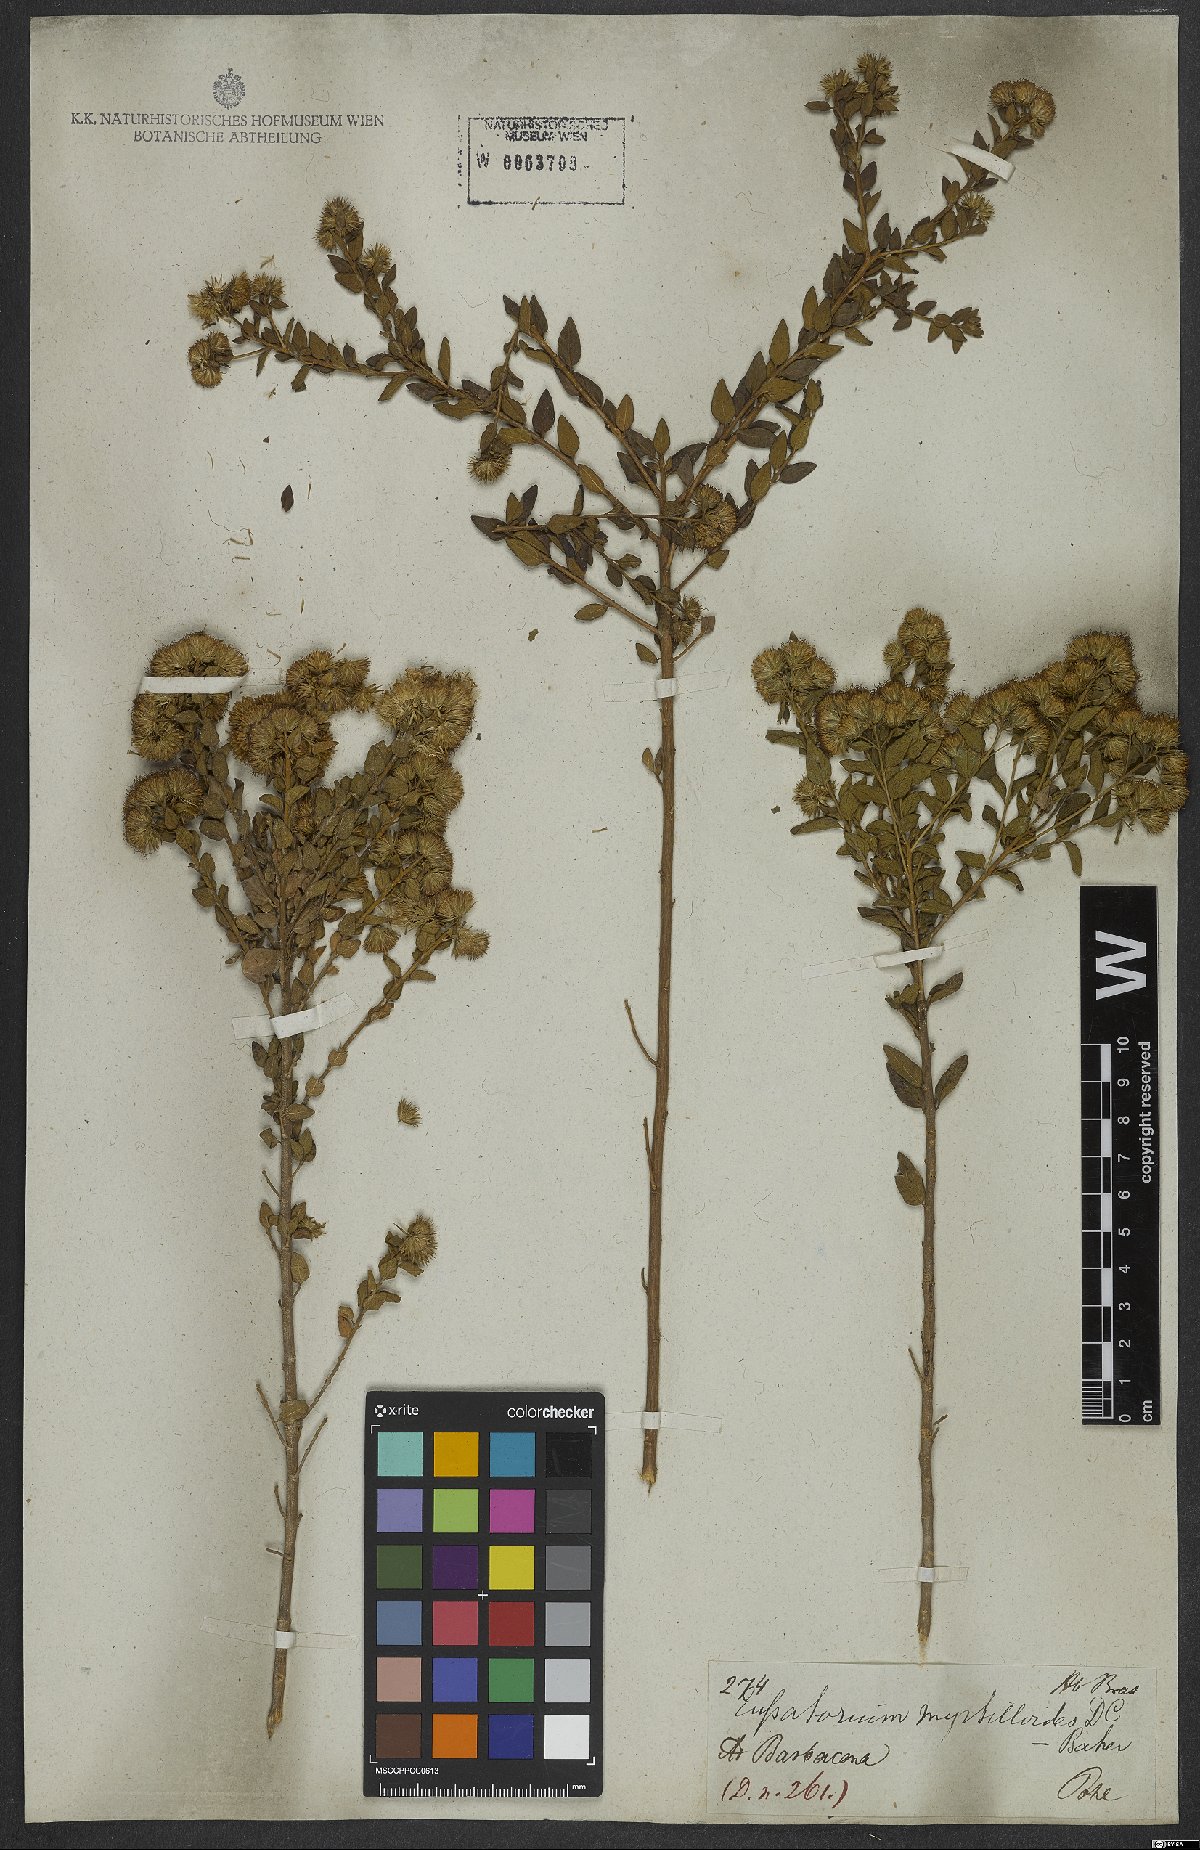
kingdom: Plantae
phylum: Tracheophyta
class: Magnoliopsida
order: Asterales
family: Asteraceae
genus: Koanophyllon
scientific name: Koanophyllon myrtilloides
